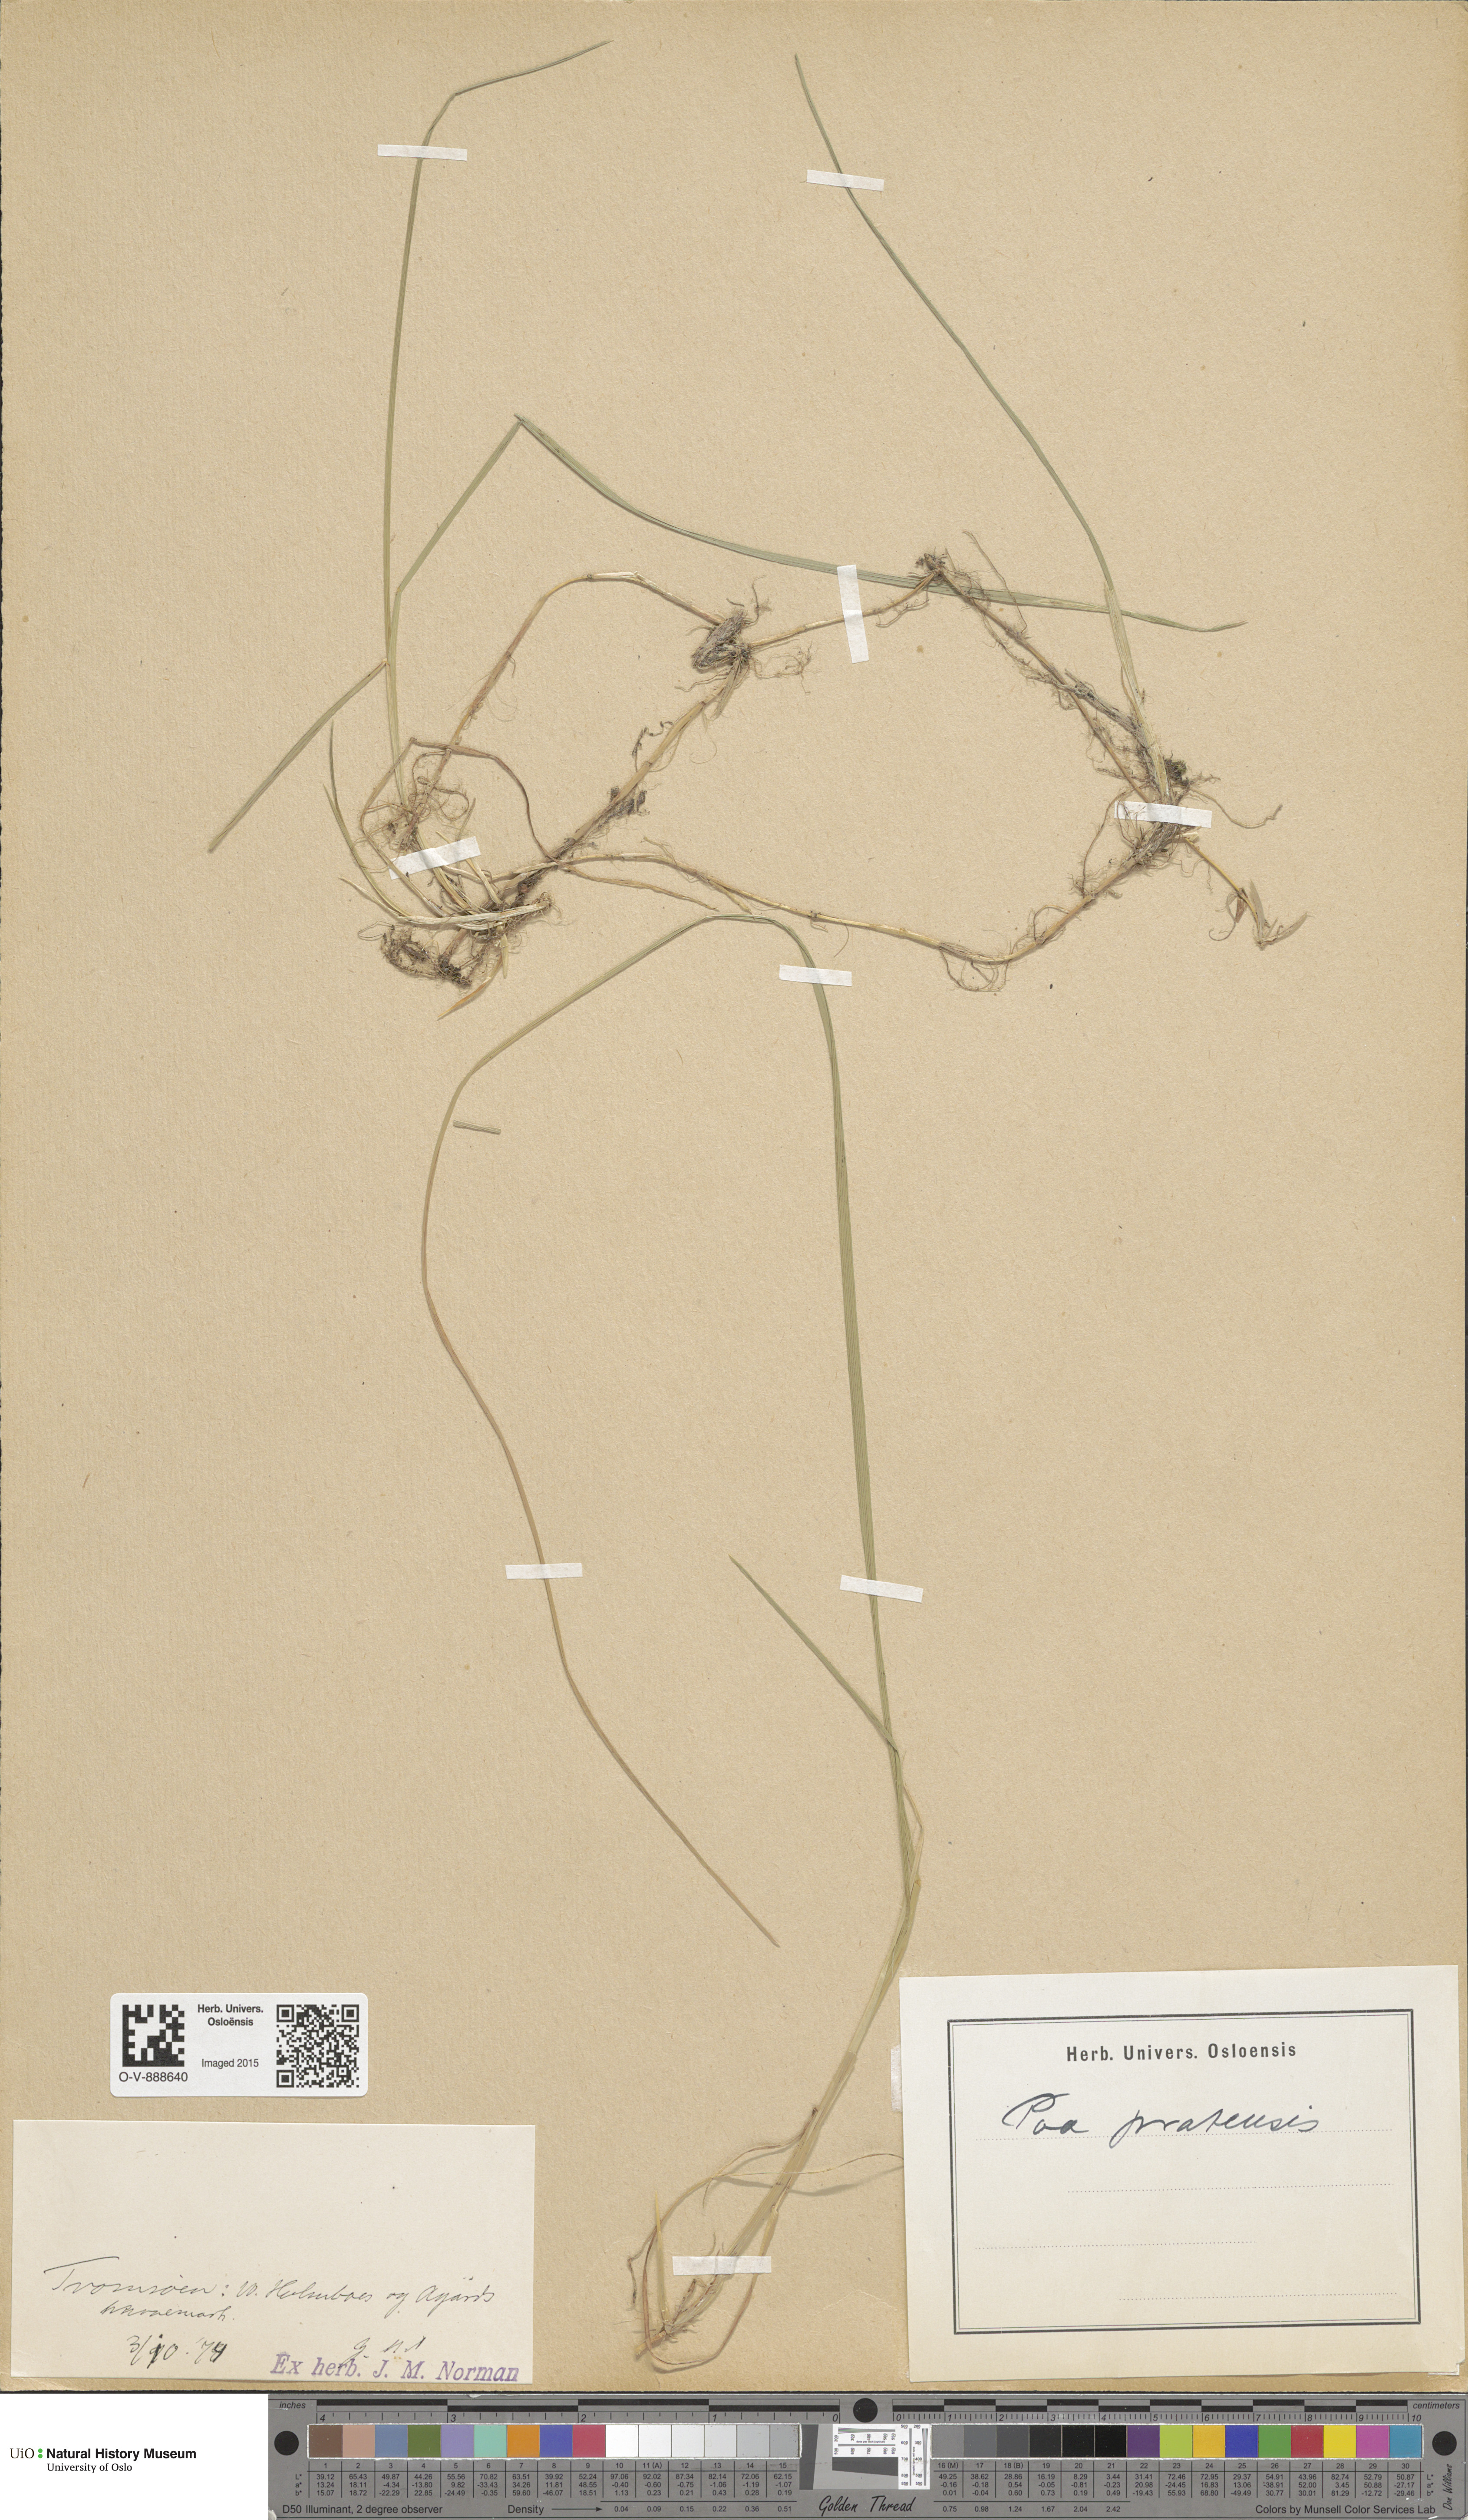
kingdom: Plantae
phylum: Tracheophyta
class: Liliopsida
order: Poales
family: Poaceae
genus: Poa
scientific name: Poa pratensis
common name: Kentucky bluegrass
